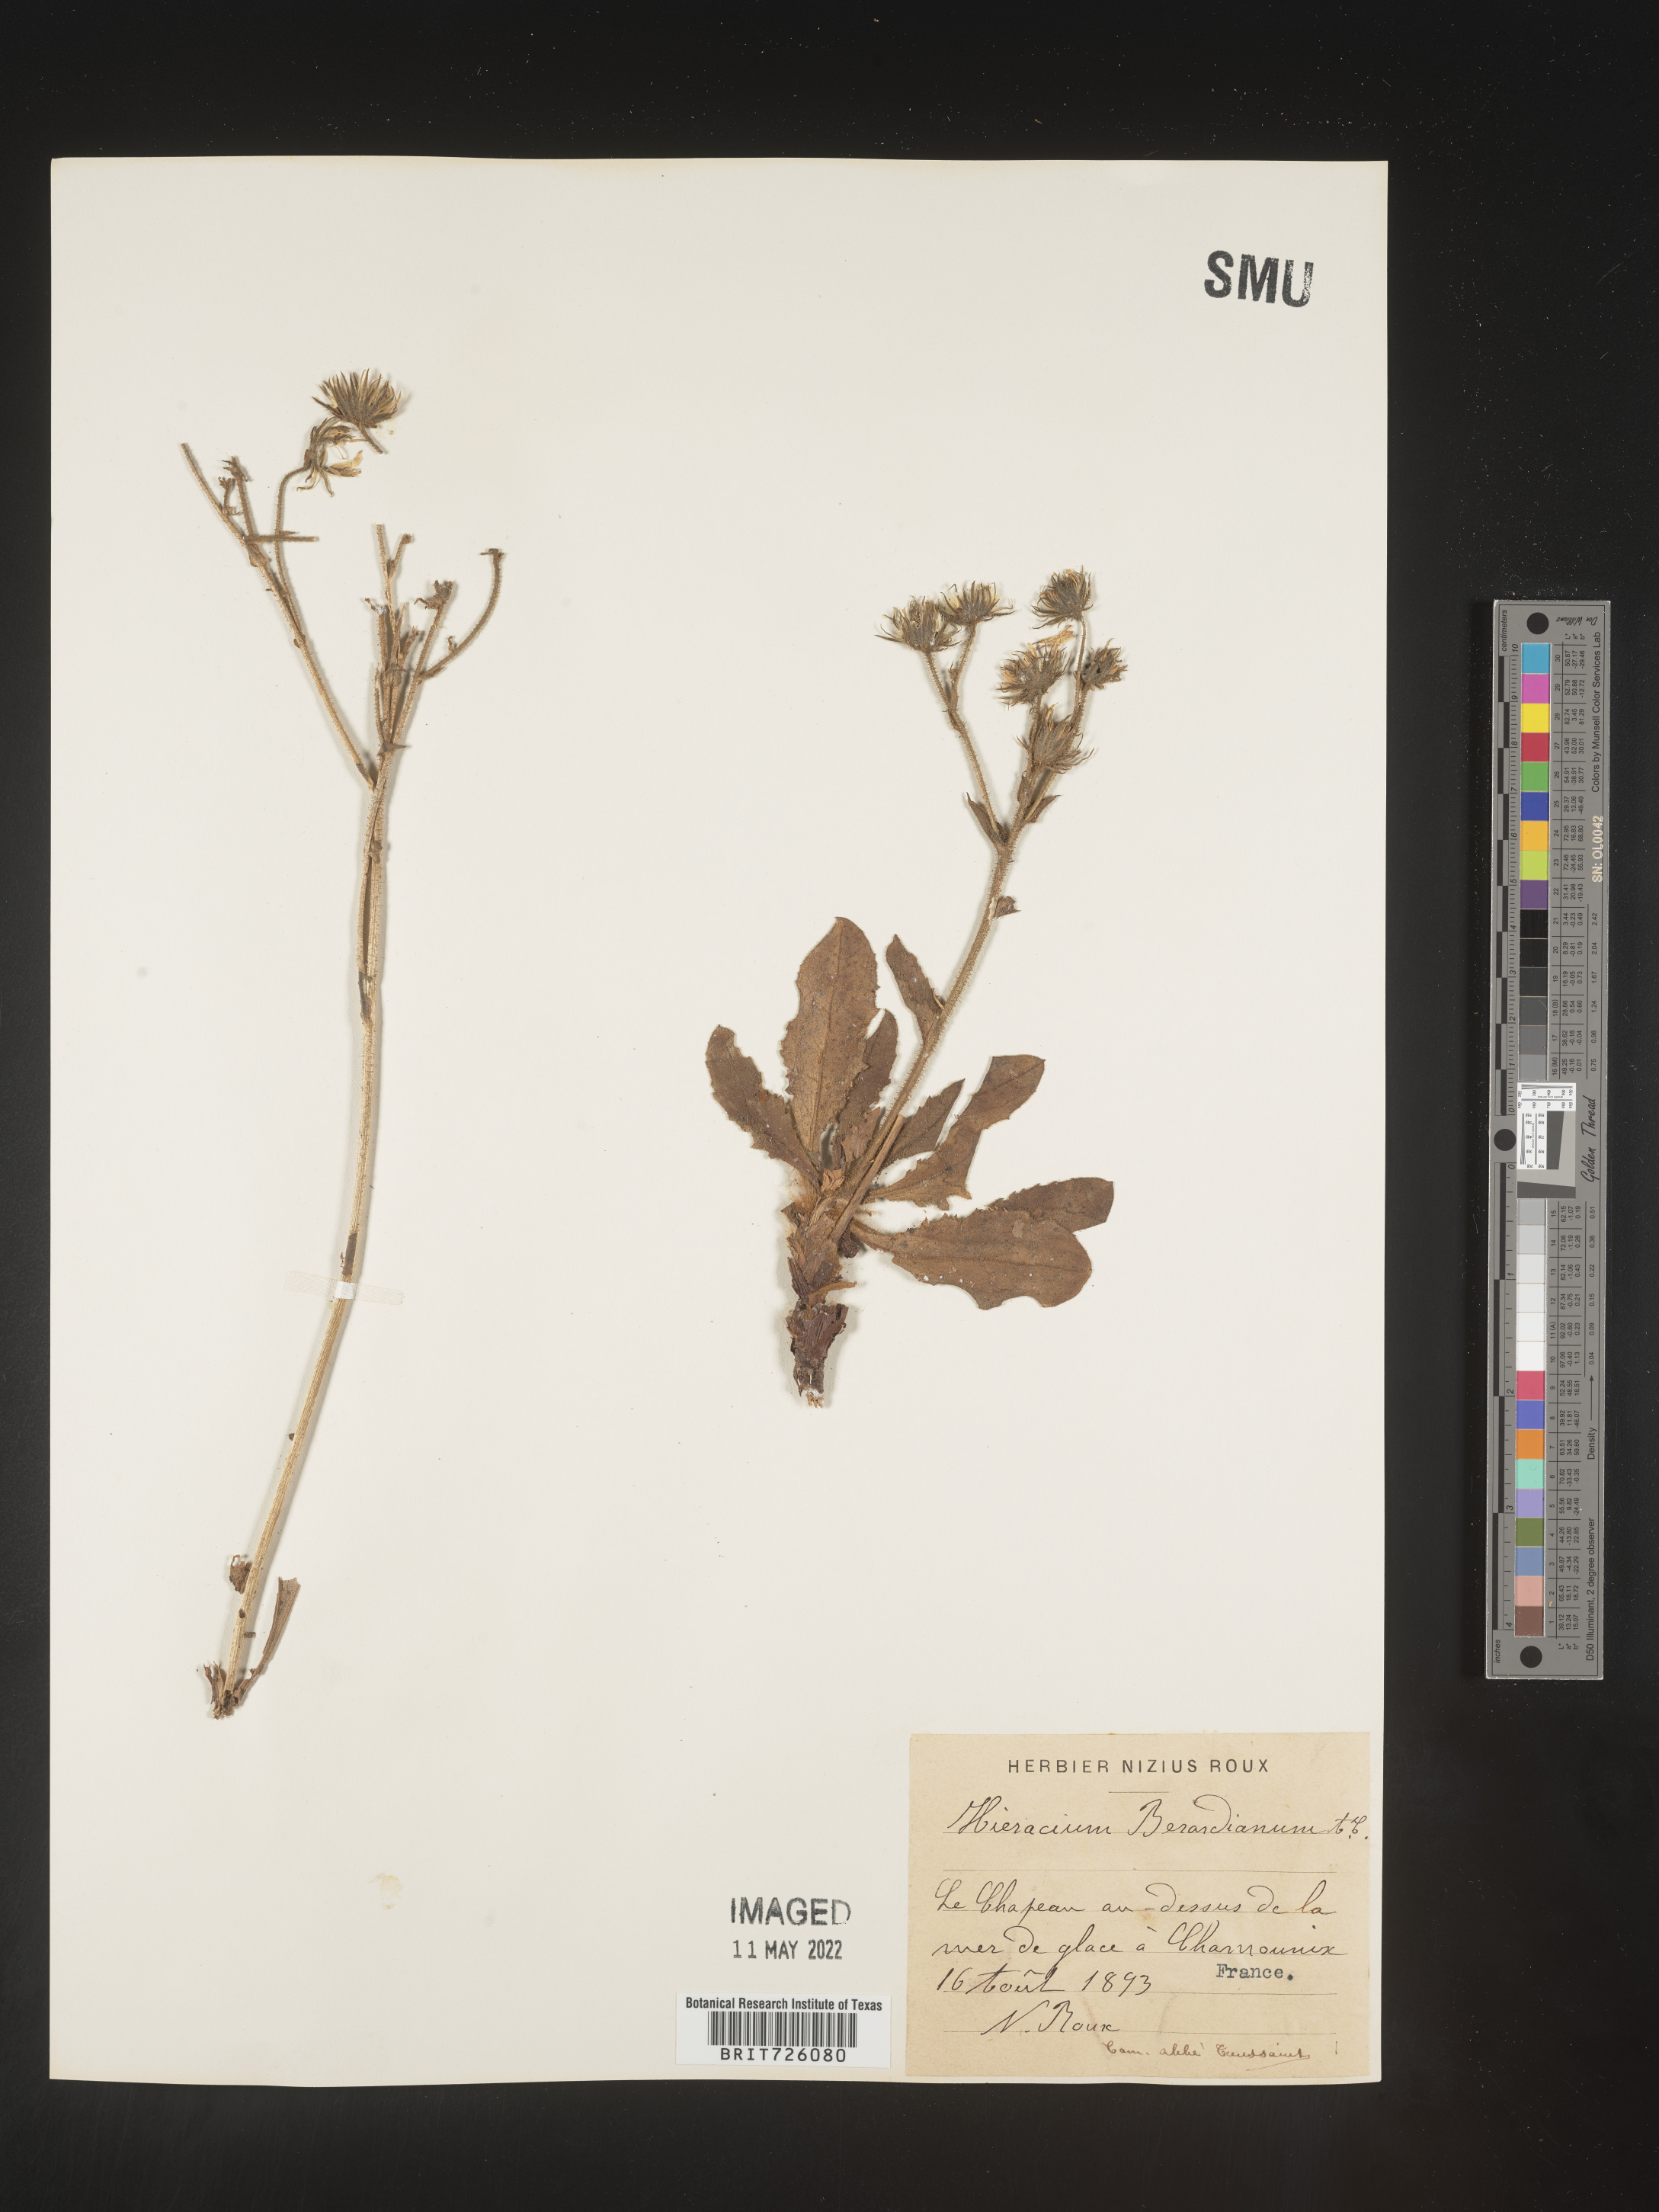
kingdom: Plantae
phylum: Tracheophyta
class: Magnoliopsida
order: Asterales
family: Asteraceae
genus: Hieracium
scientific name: Hieracium
